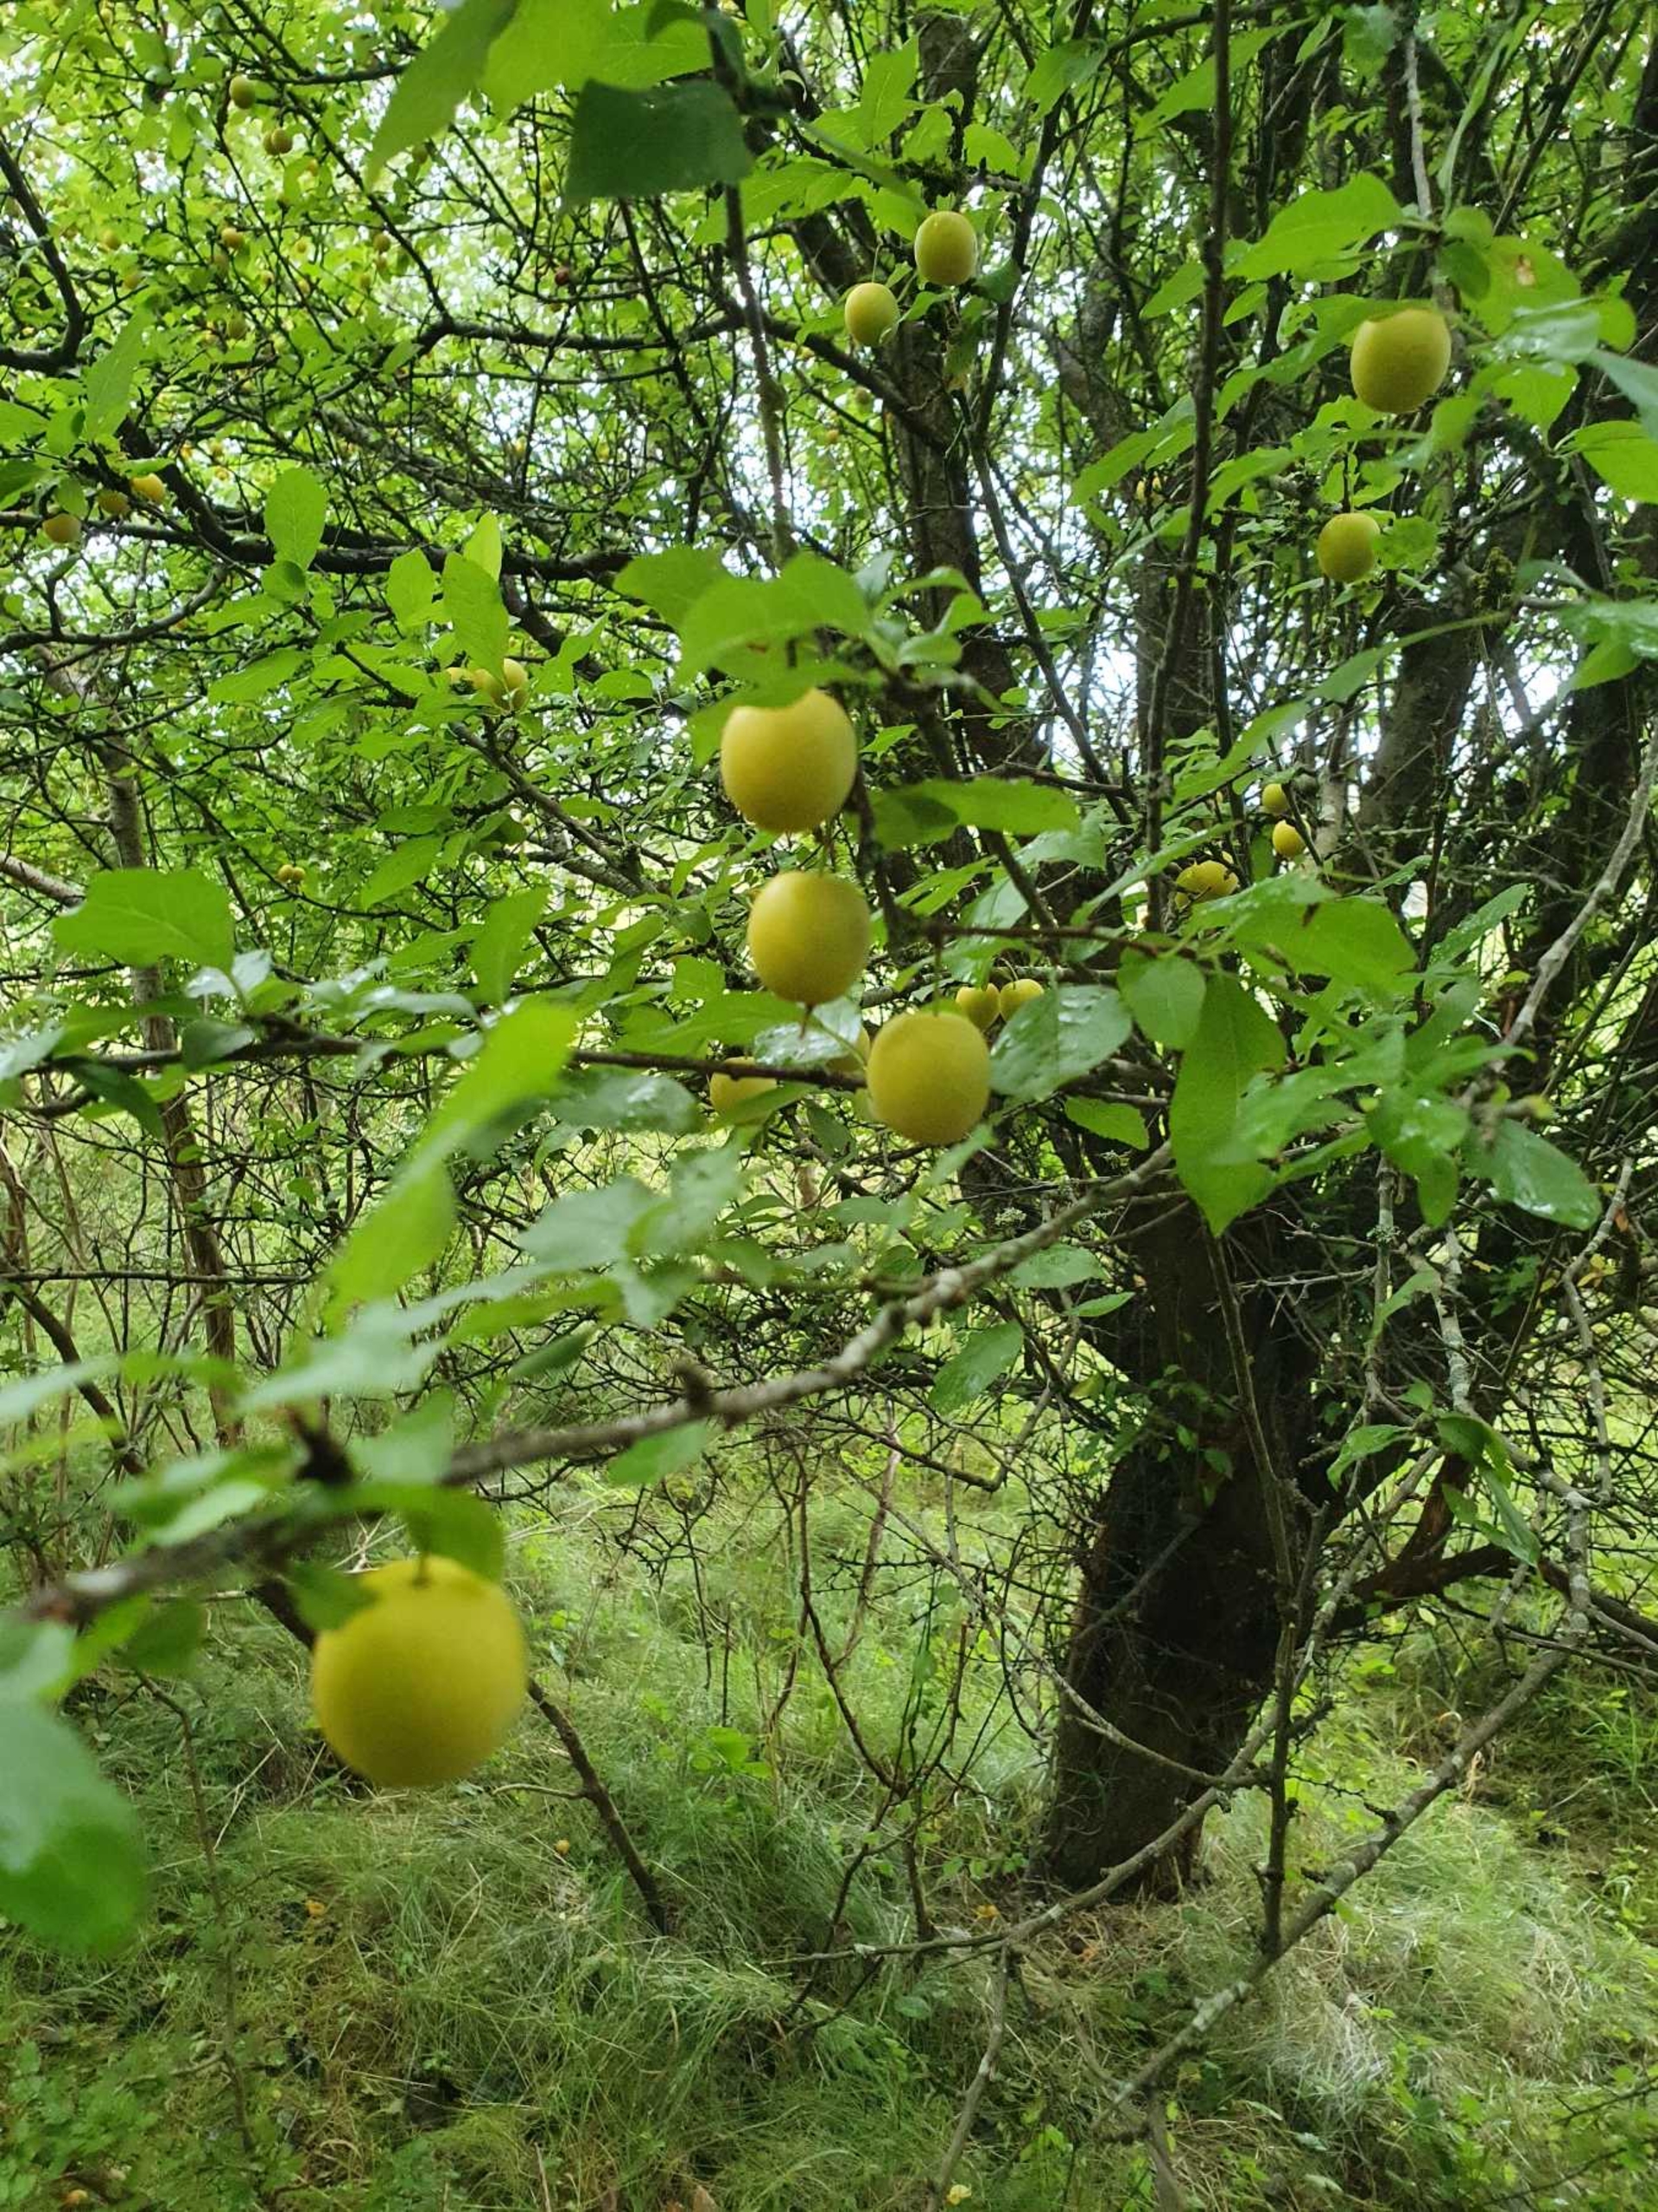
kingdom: Plantae
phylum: Tracheophyta
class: Magnoliopsida
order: Rosales
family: Rosaceae
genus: Prunus
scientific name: Prunus cerasifera
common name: Mirabel
